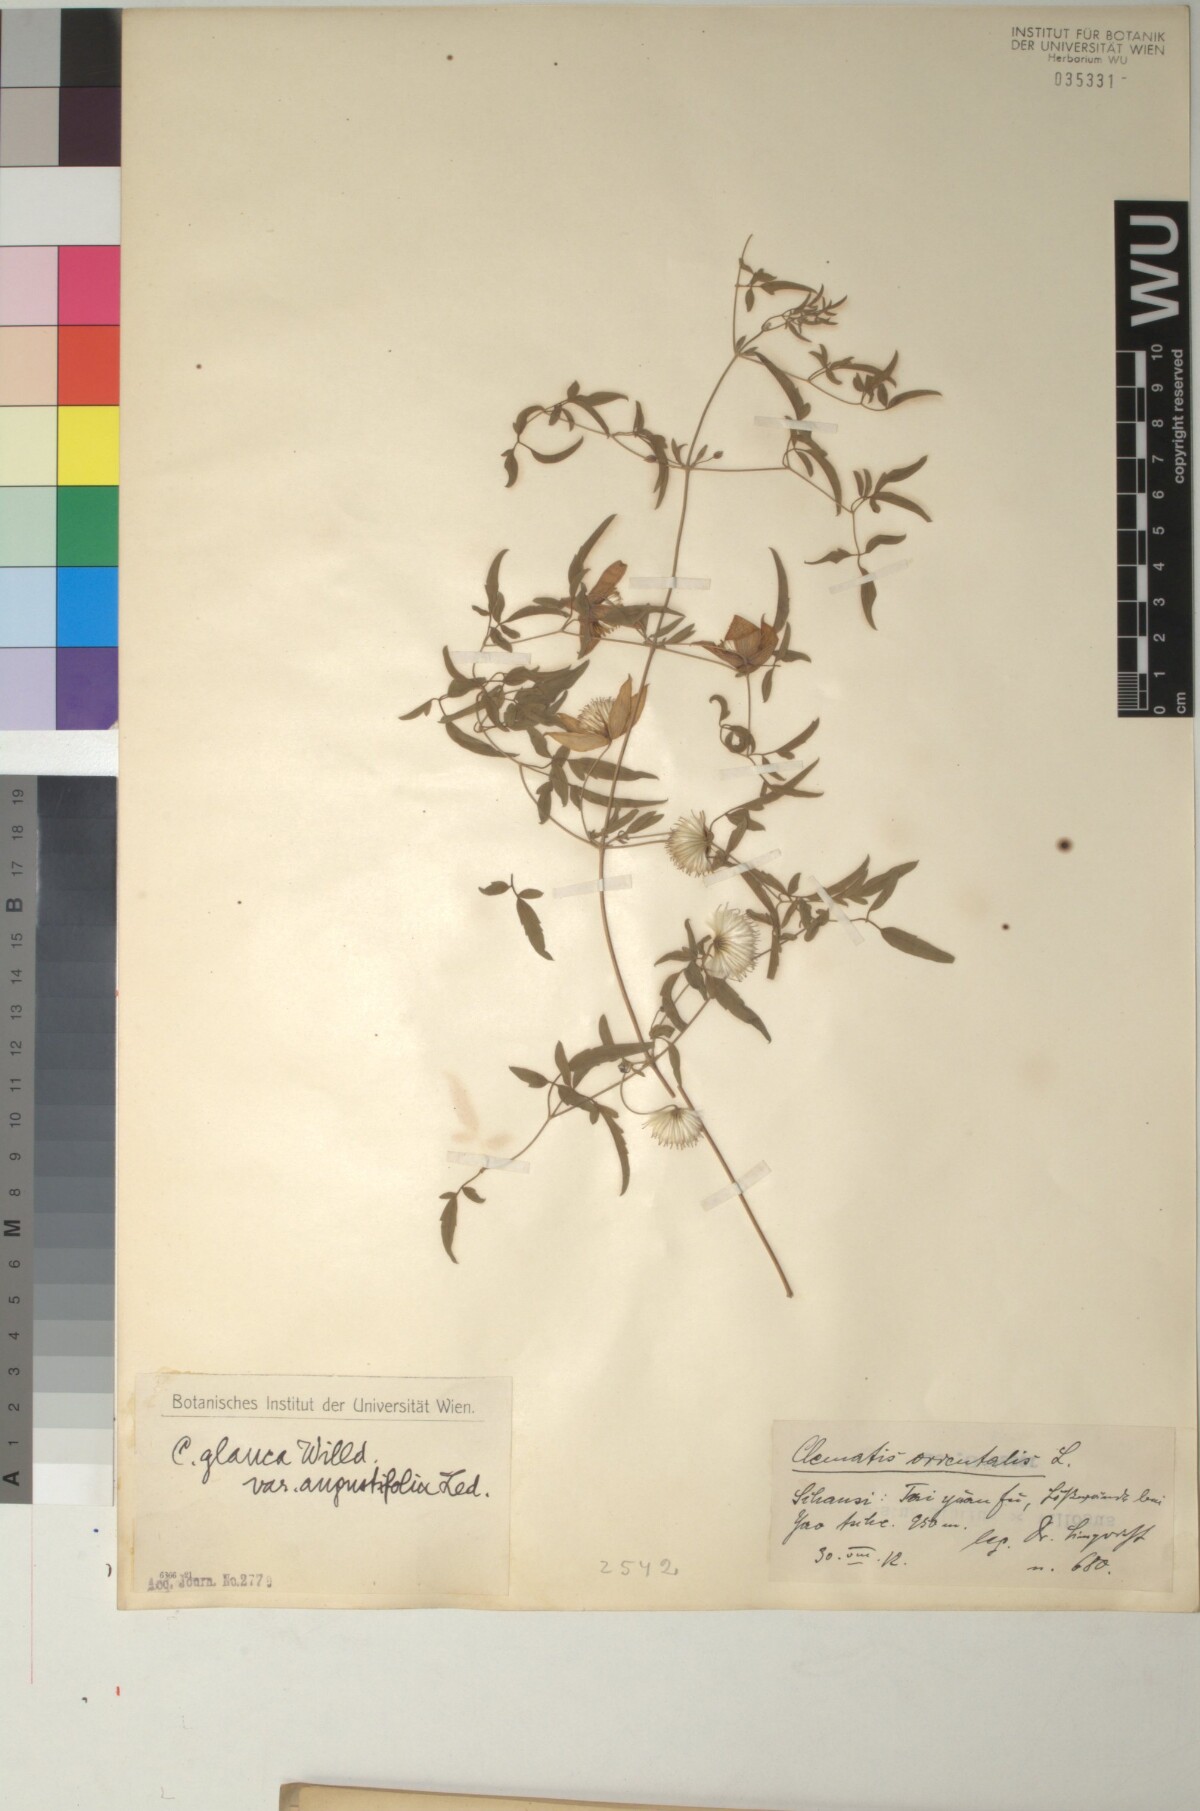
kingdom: Plantae
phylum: Tracheophyta
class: Magnoliopsida
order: Ranunculales
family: Ranunculaceae
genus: Clematis
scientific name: Clematis intricata
